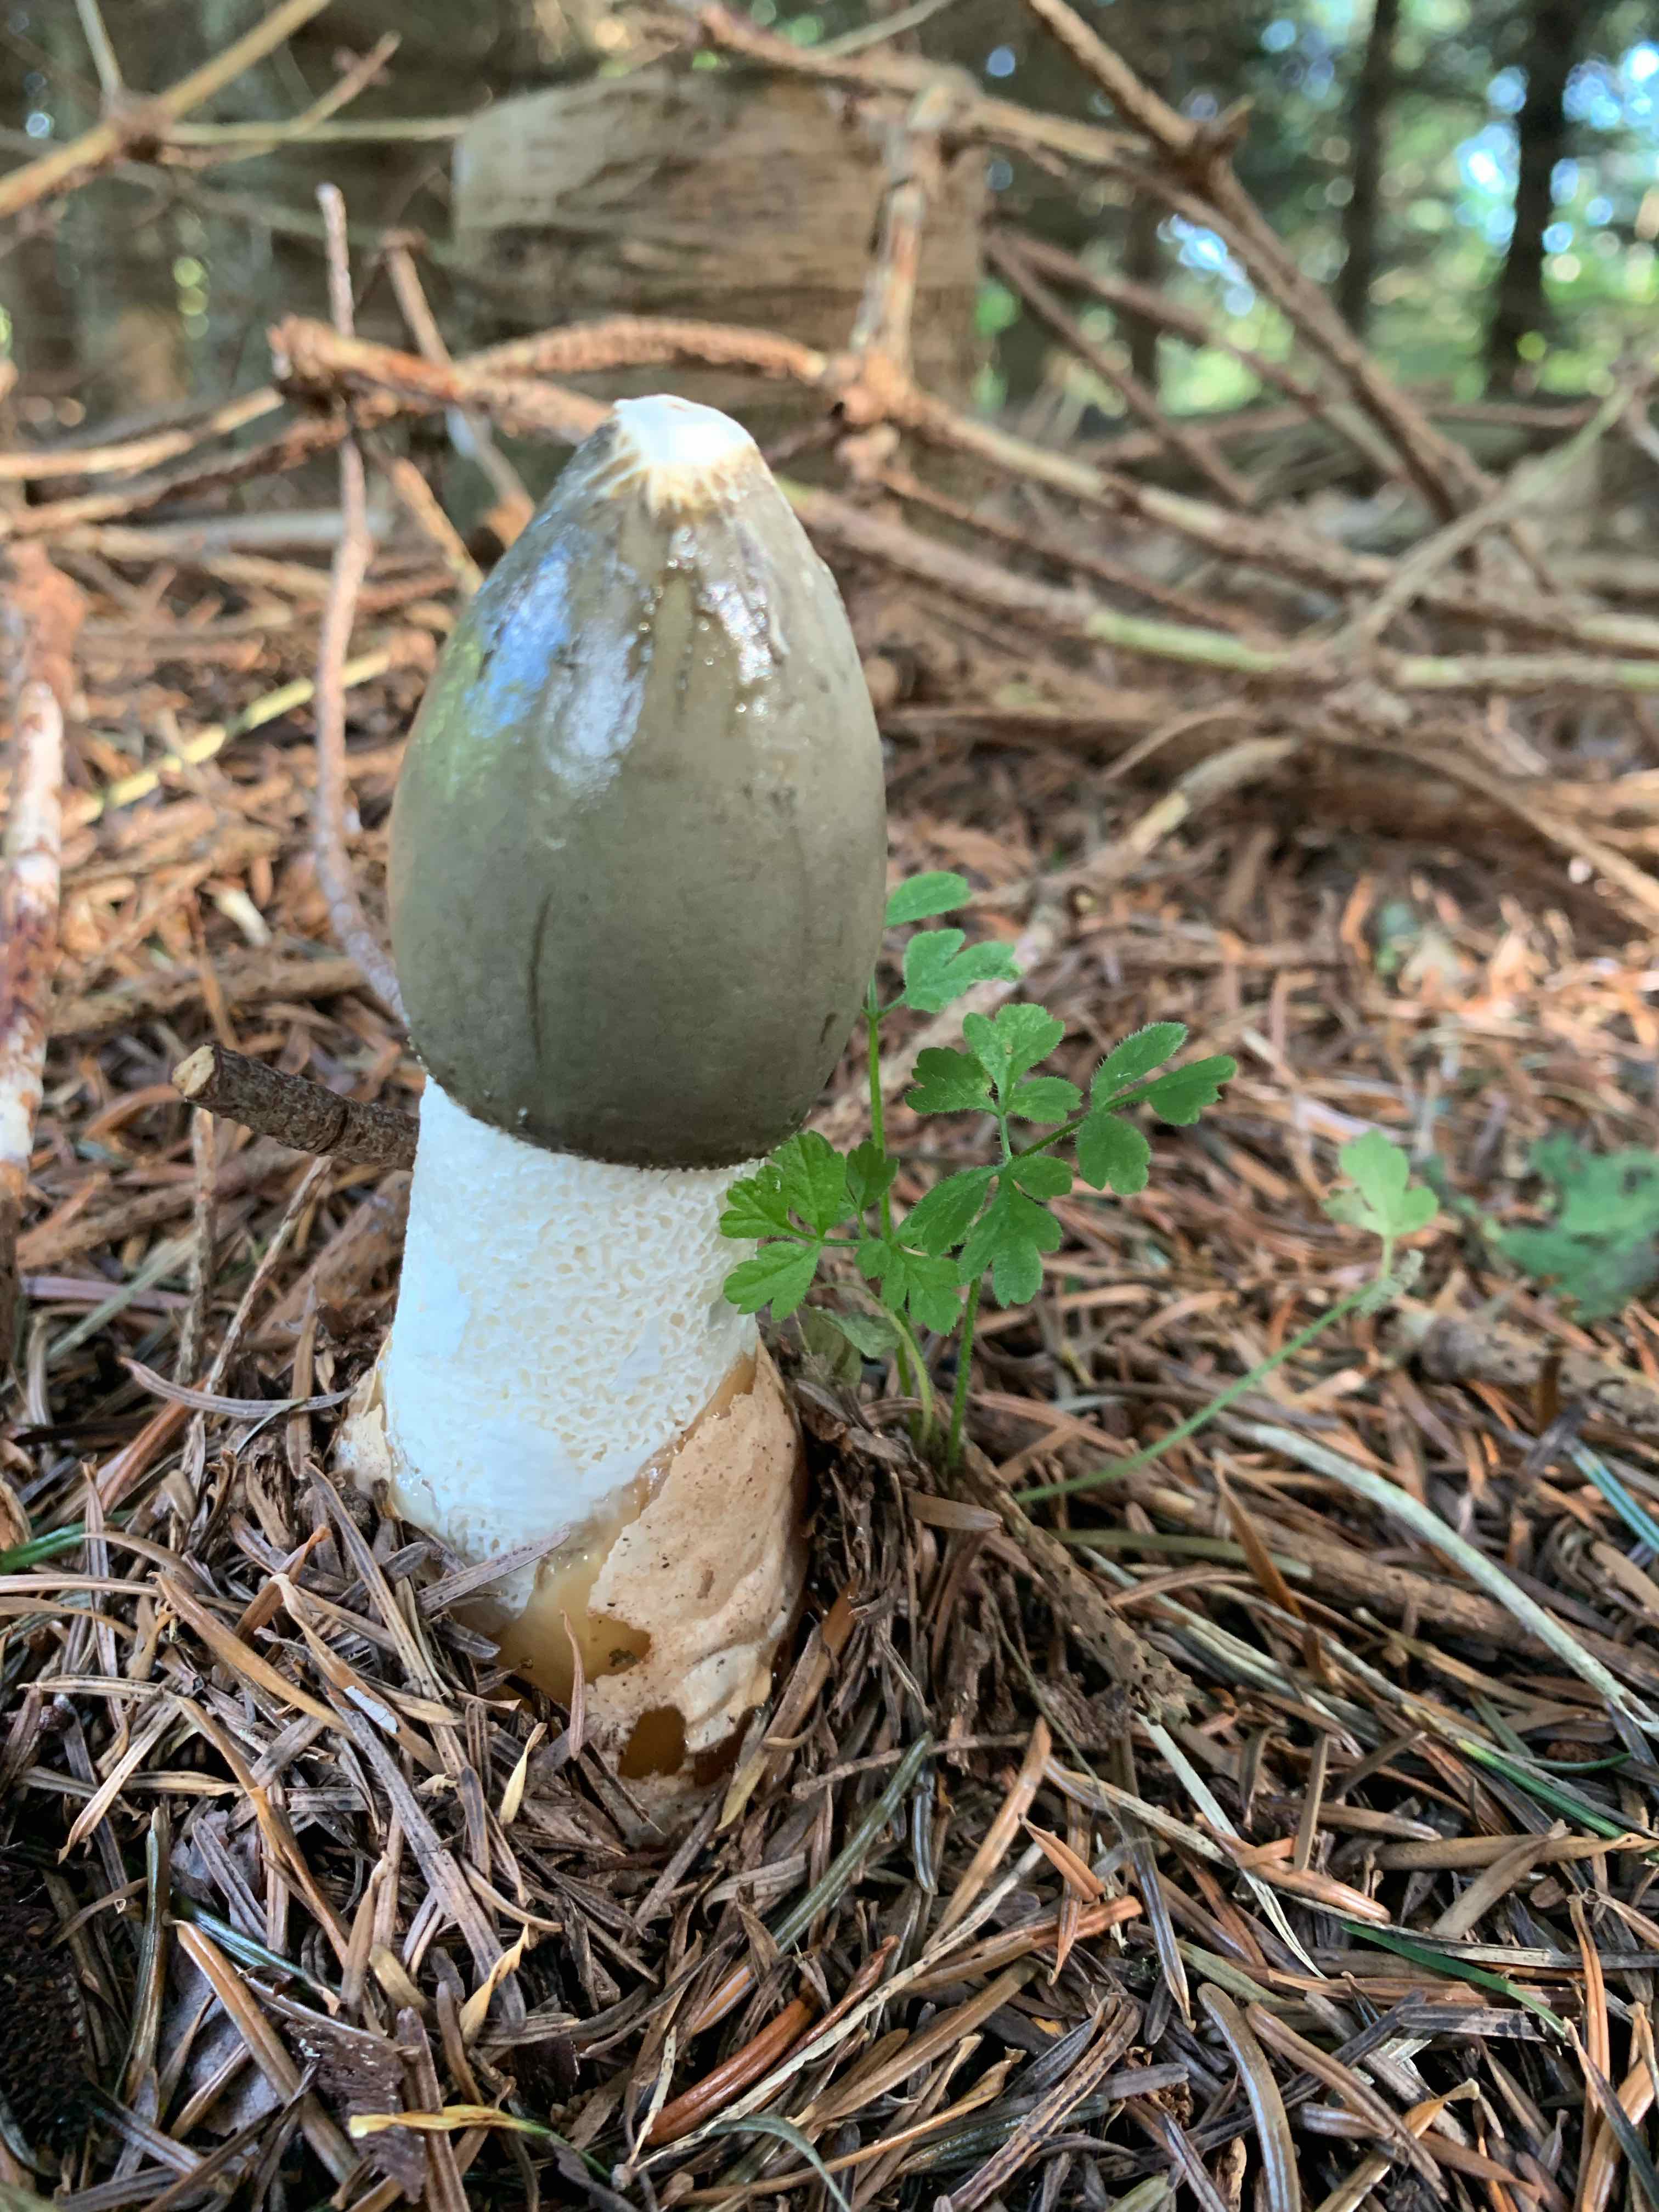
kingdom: Fungi
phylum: Basidiomycota
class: Agaricomycetes
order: Phallales
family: Phallaceae
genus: Phallus
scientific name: Phallus impudicus
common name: almindelig stinksvamp
